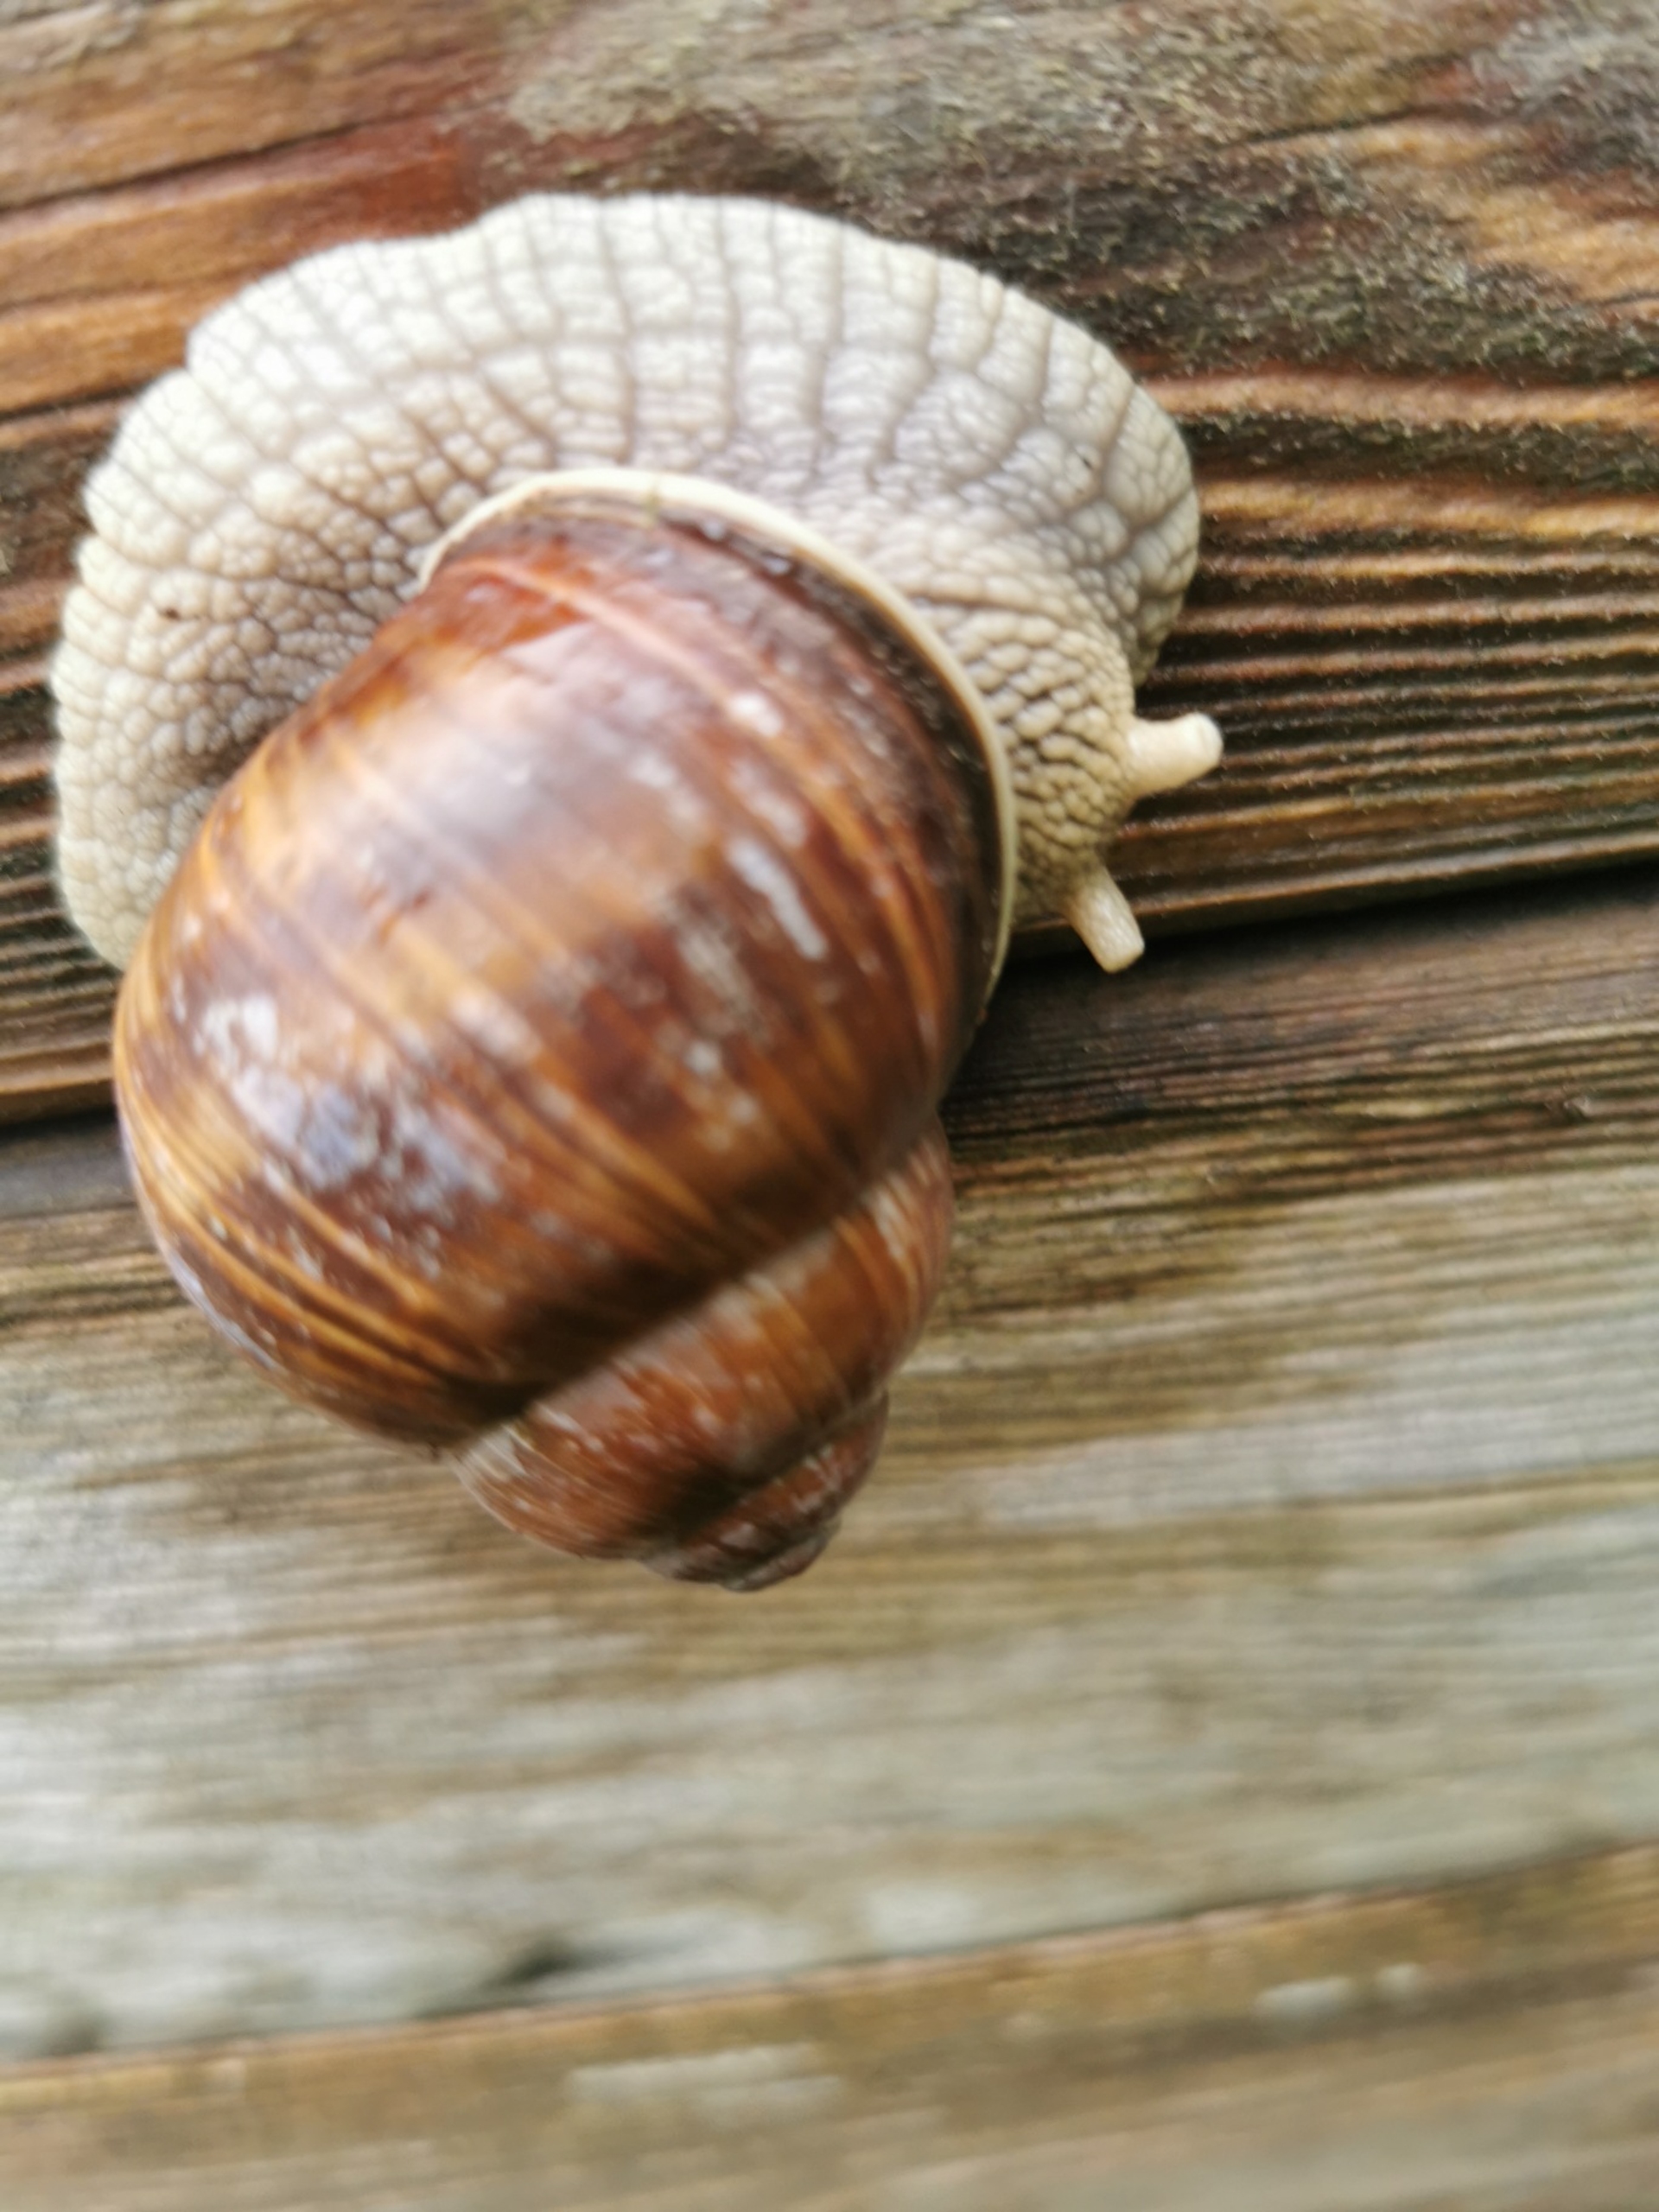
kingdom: Animalia
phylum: Mollusca
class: Gastropoda
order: Stylommatophora
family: Helicidae
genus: Helix
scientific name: Helix pomatia
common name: Vinbjergsnegl
